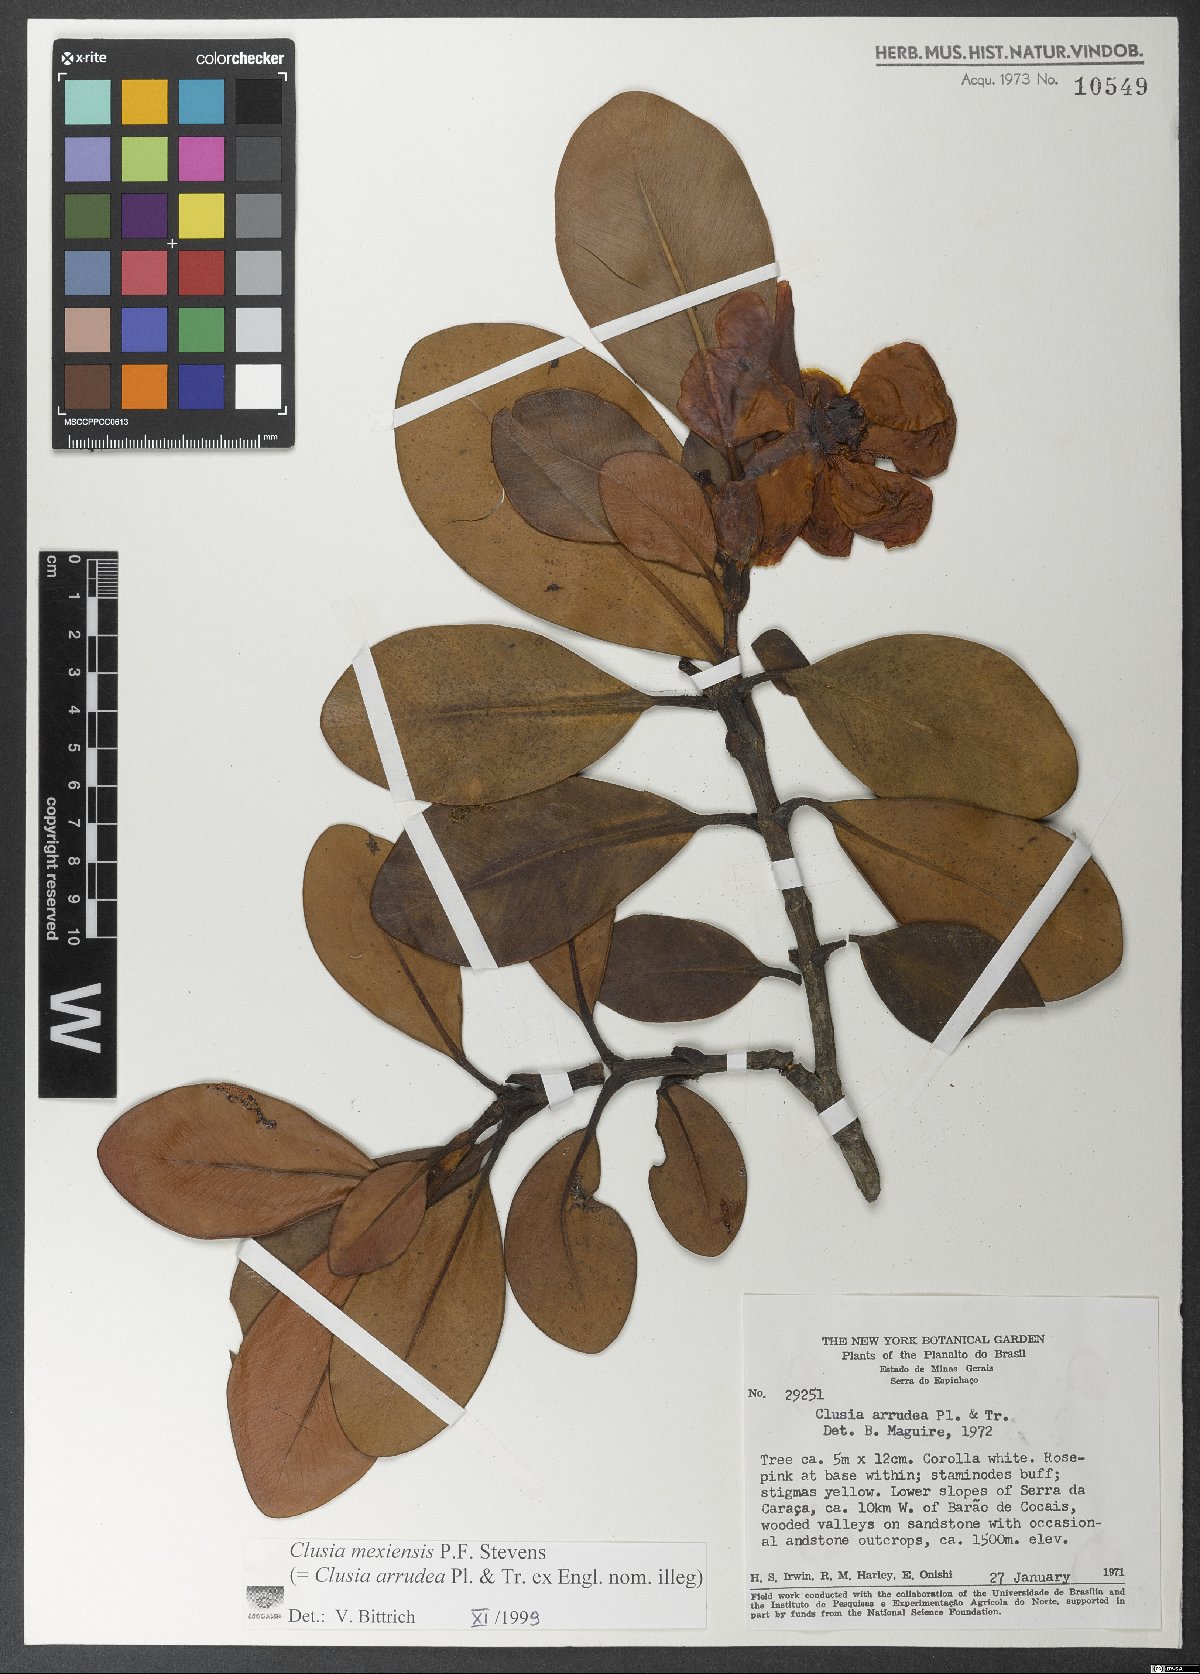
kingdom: Plantae
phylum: Tracheophyta
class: Magnoliopsida
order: Malpighiales
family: Clusiaceae
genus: Clusia
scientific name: Clusia mexiensis
